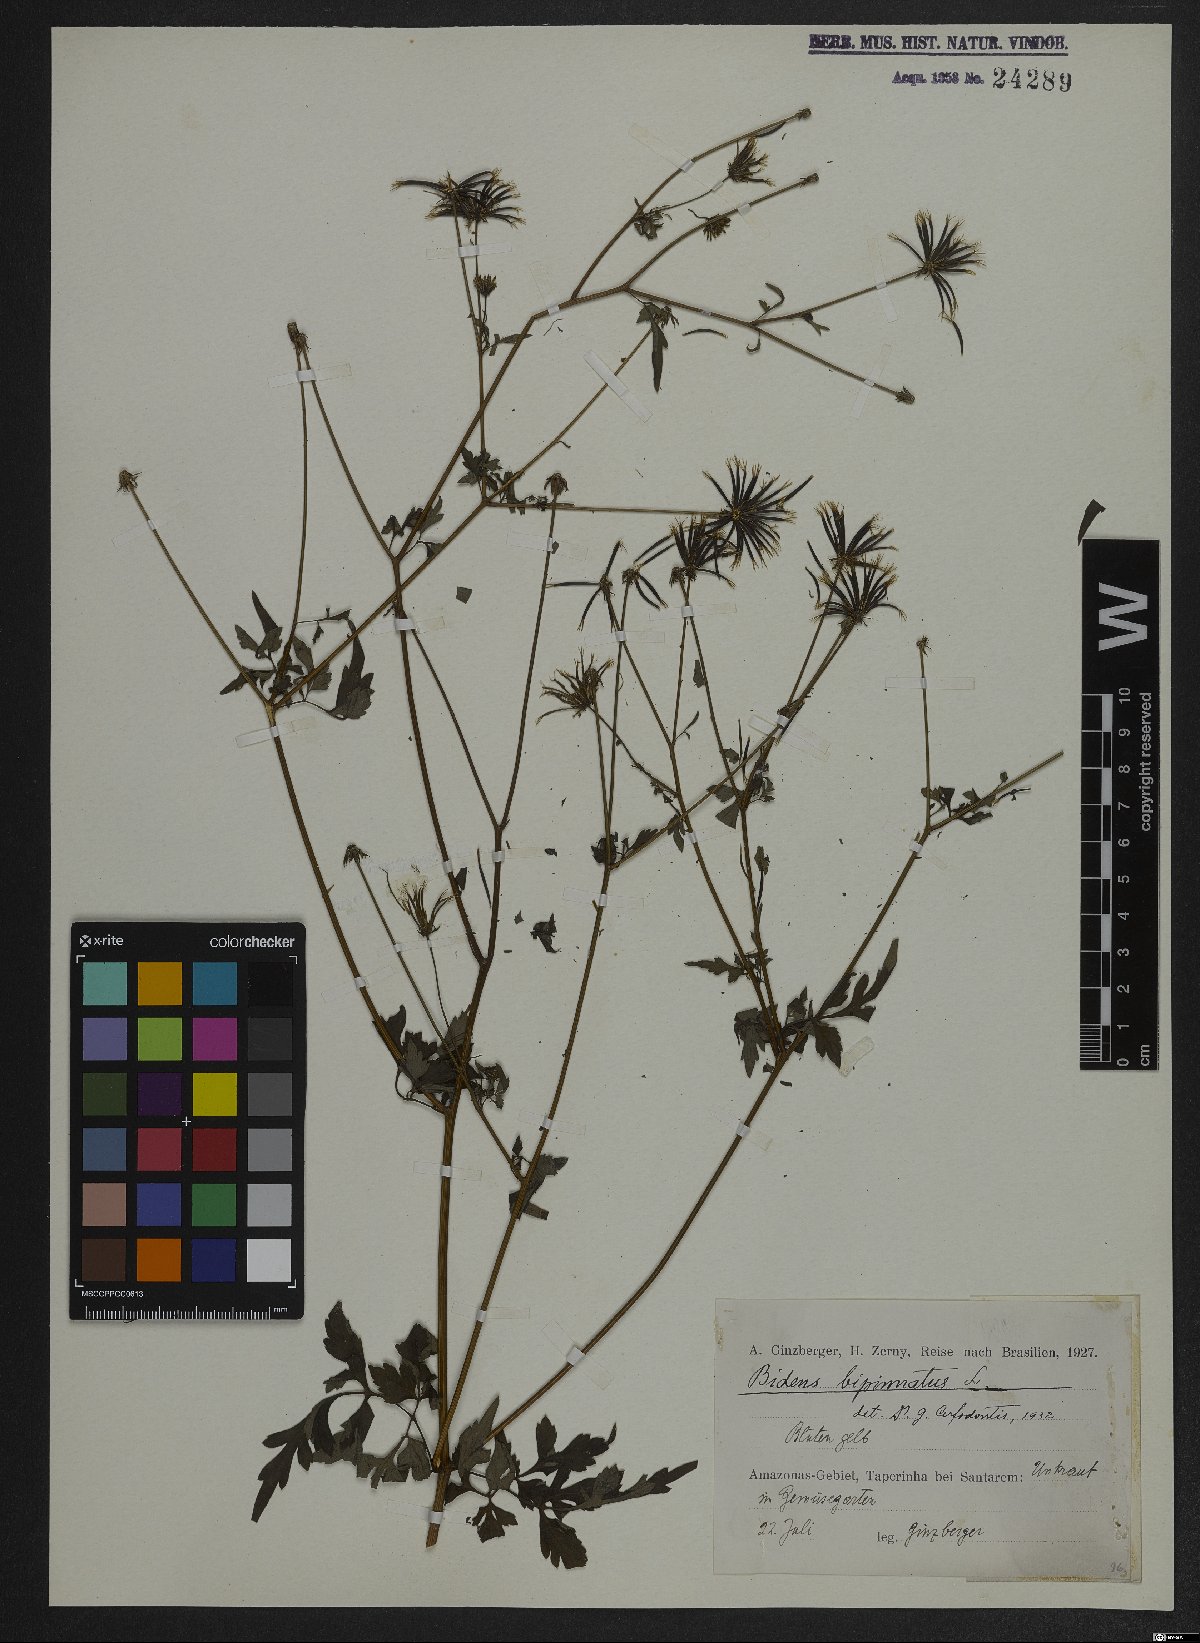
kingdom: Plantae
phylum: Tracheophyta
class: Magnoliopsida
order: Asterales
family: Asteraceae
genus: Bidens
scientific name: Bidens bipinnata
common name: Spanish-needles
